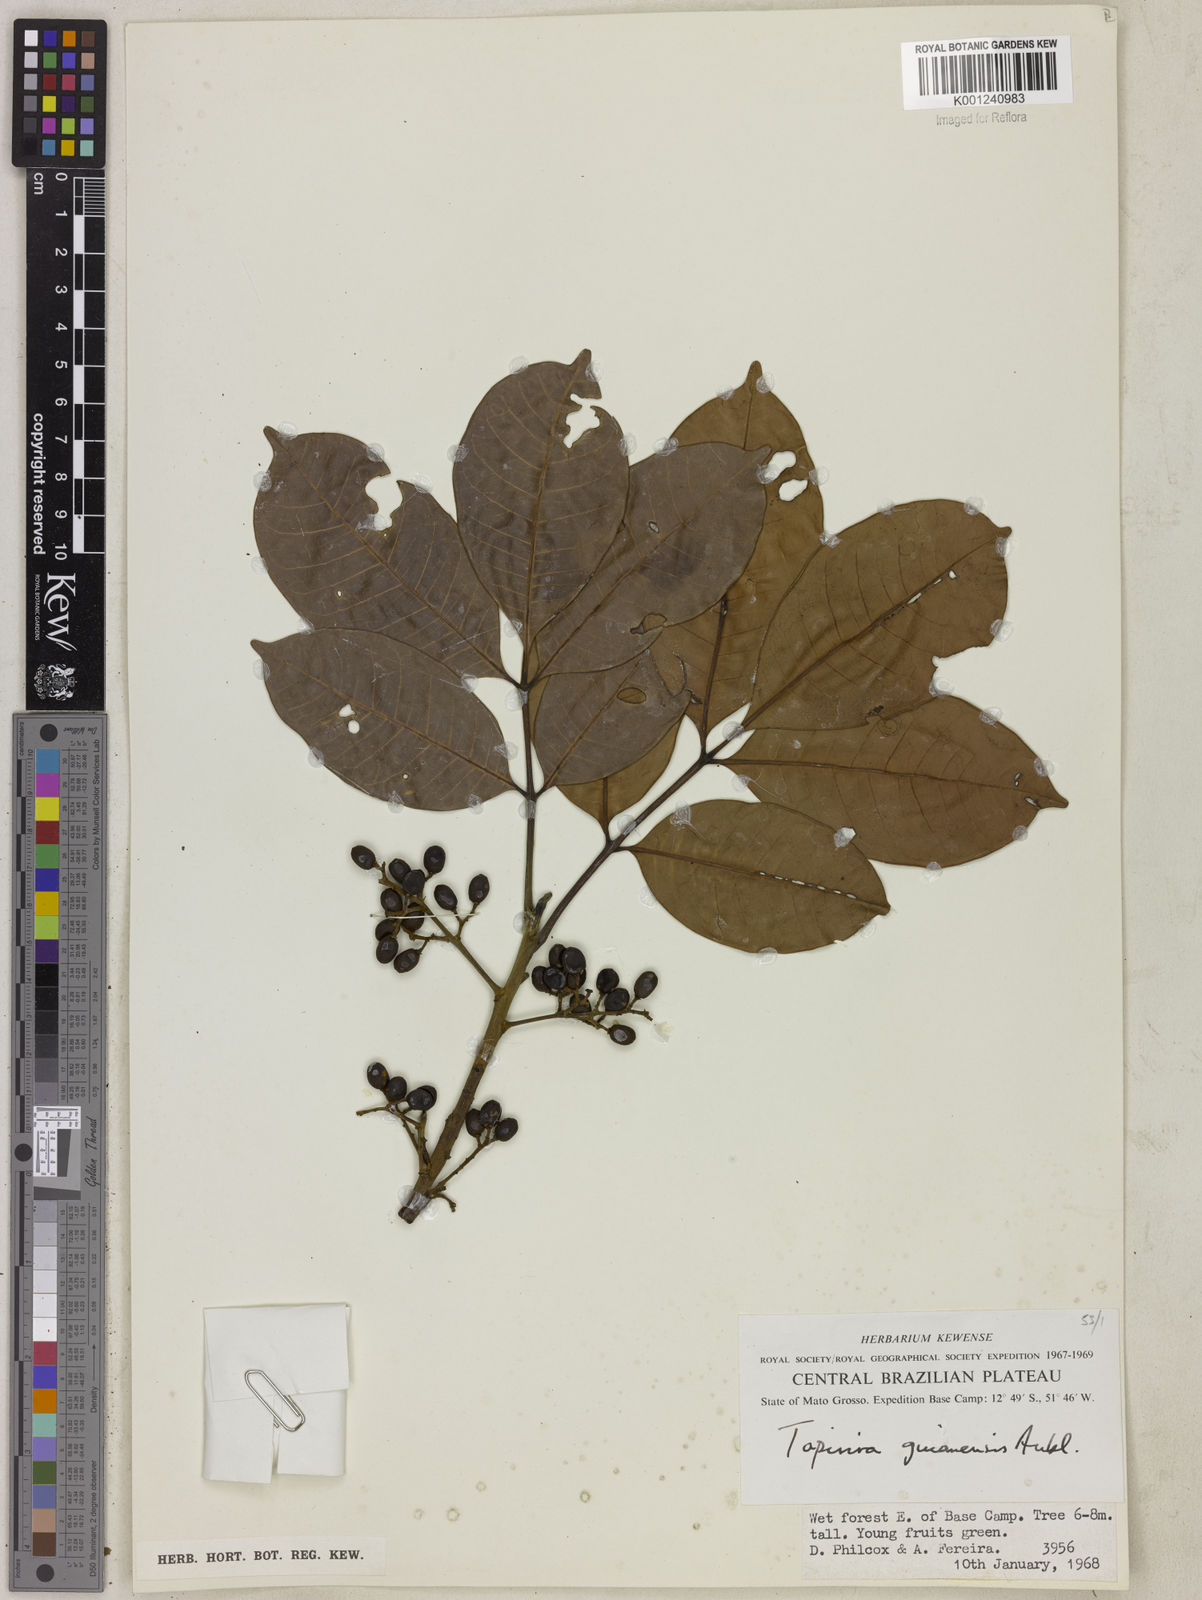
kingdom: Plantae
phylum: Tracheophyta
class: Magnoliopsida
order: Sapindales
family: Anacardiaceae
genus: Tapirira
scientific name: Tapirira guianensis
